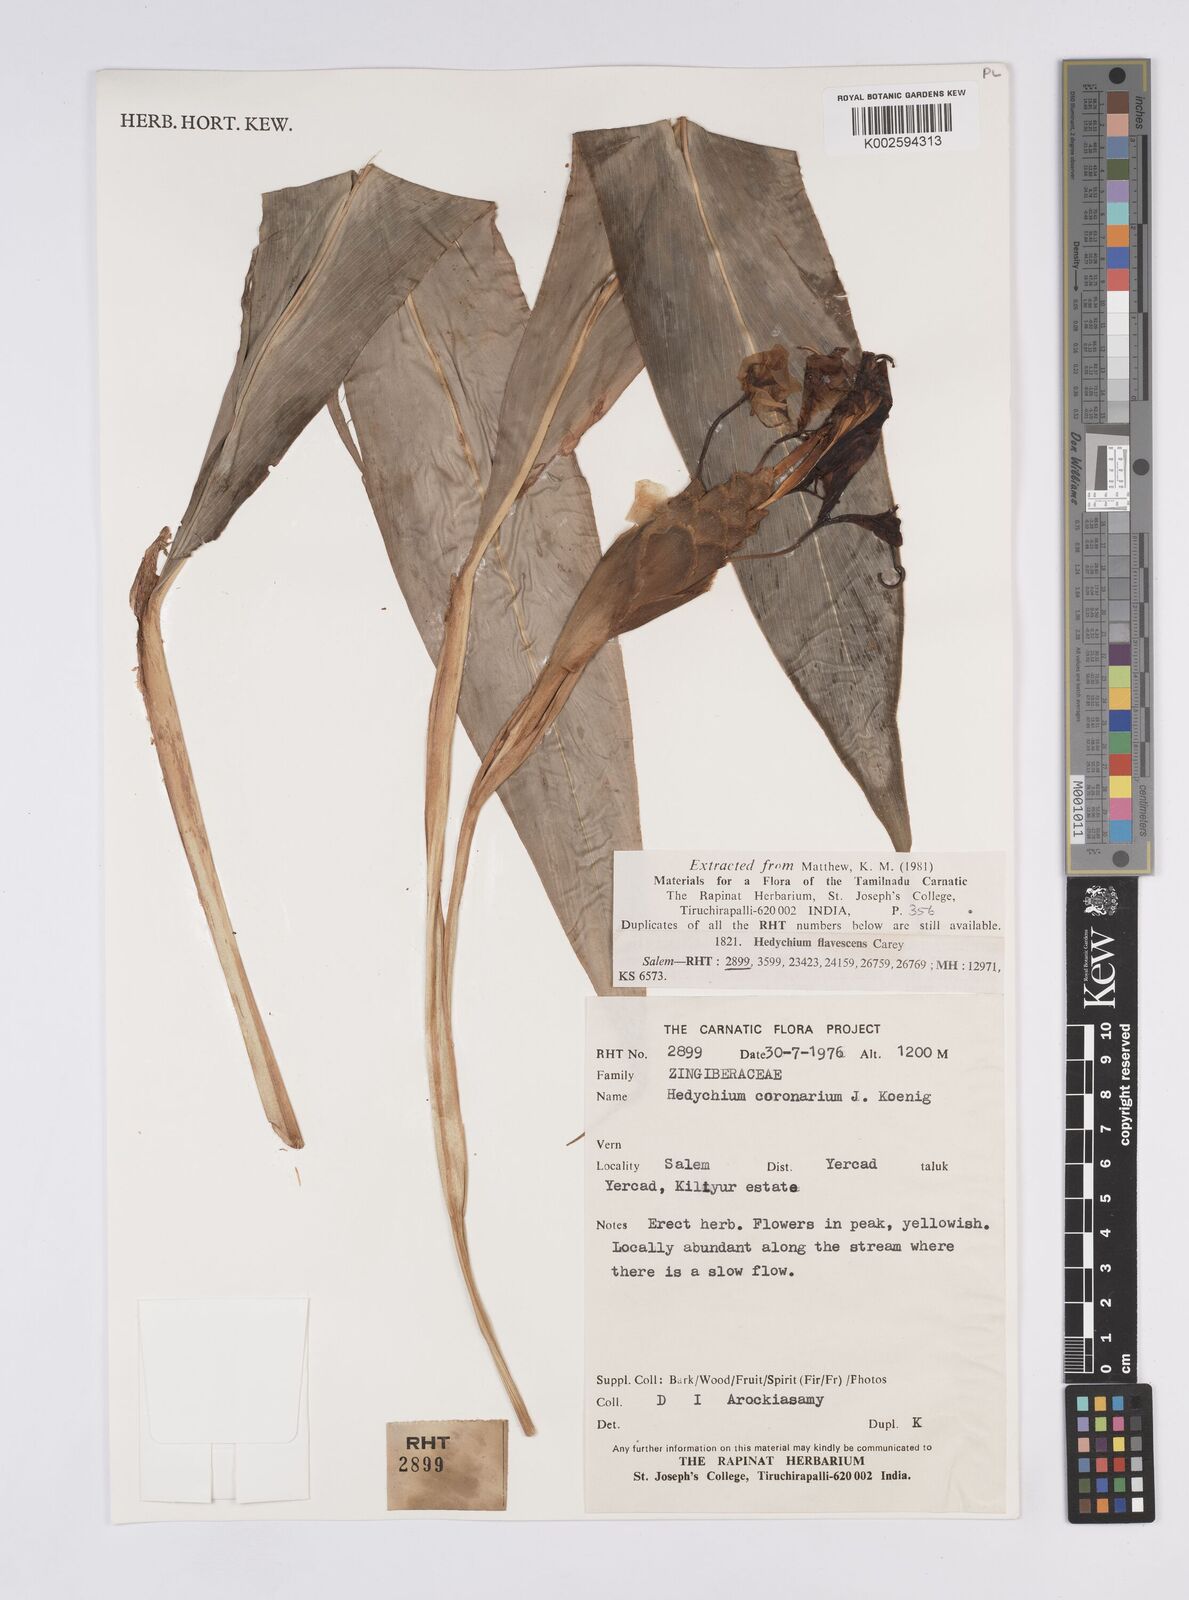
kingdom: Plantae
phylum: Tracheophyta
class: Liliopsida
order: Zingiberales
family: Zingiberaceae
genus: Hedychium
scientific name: Hedychium flavescens
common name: Yellow ginger
